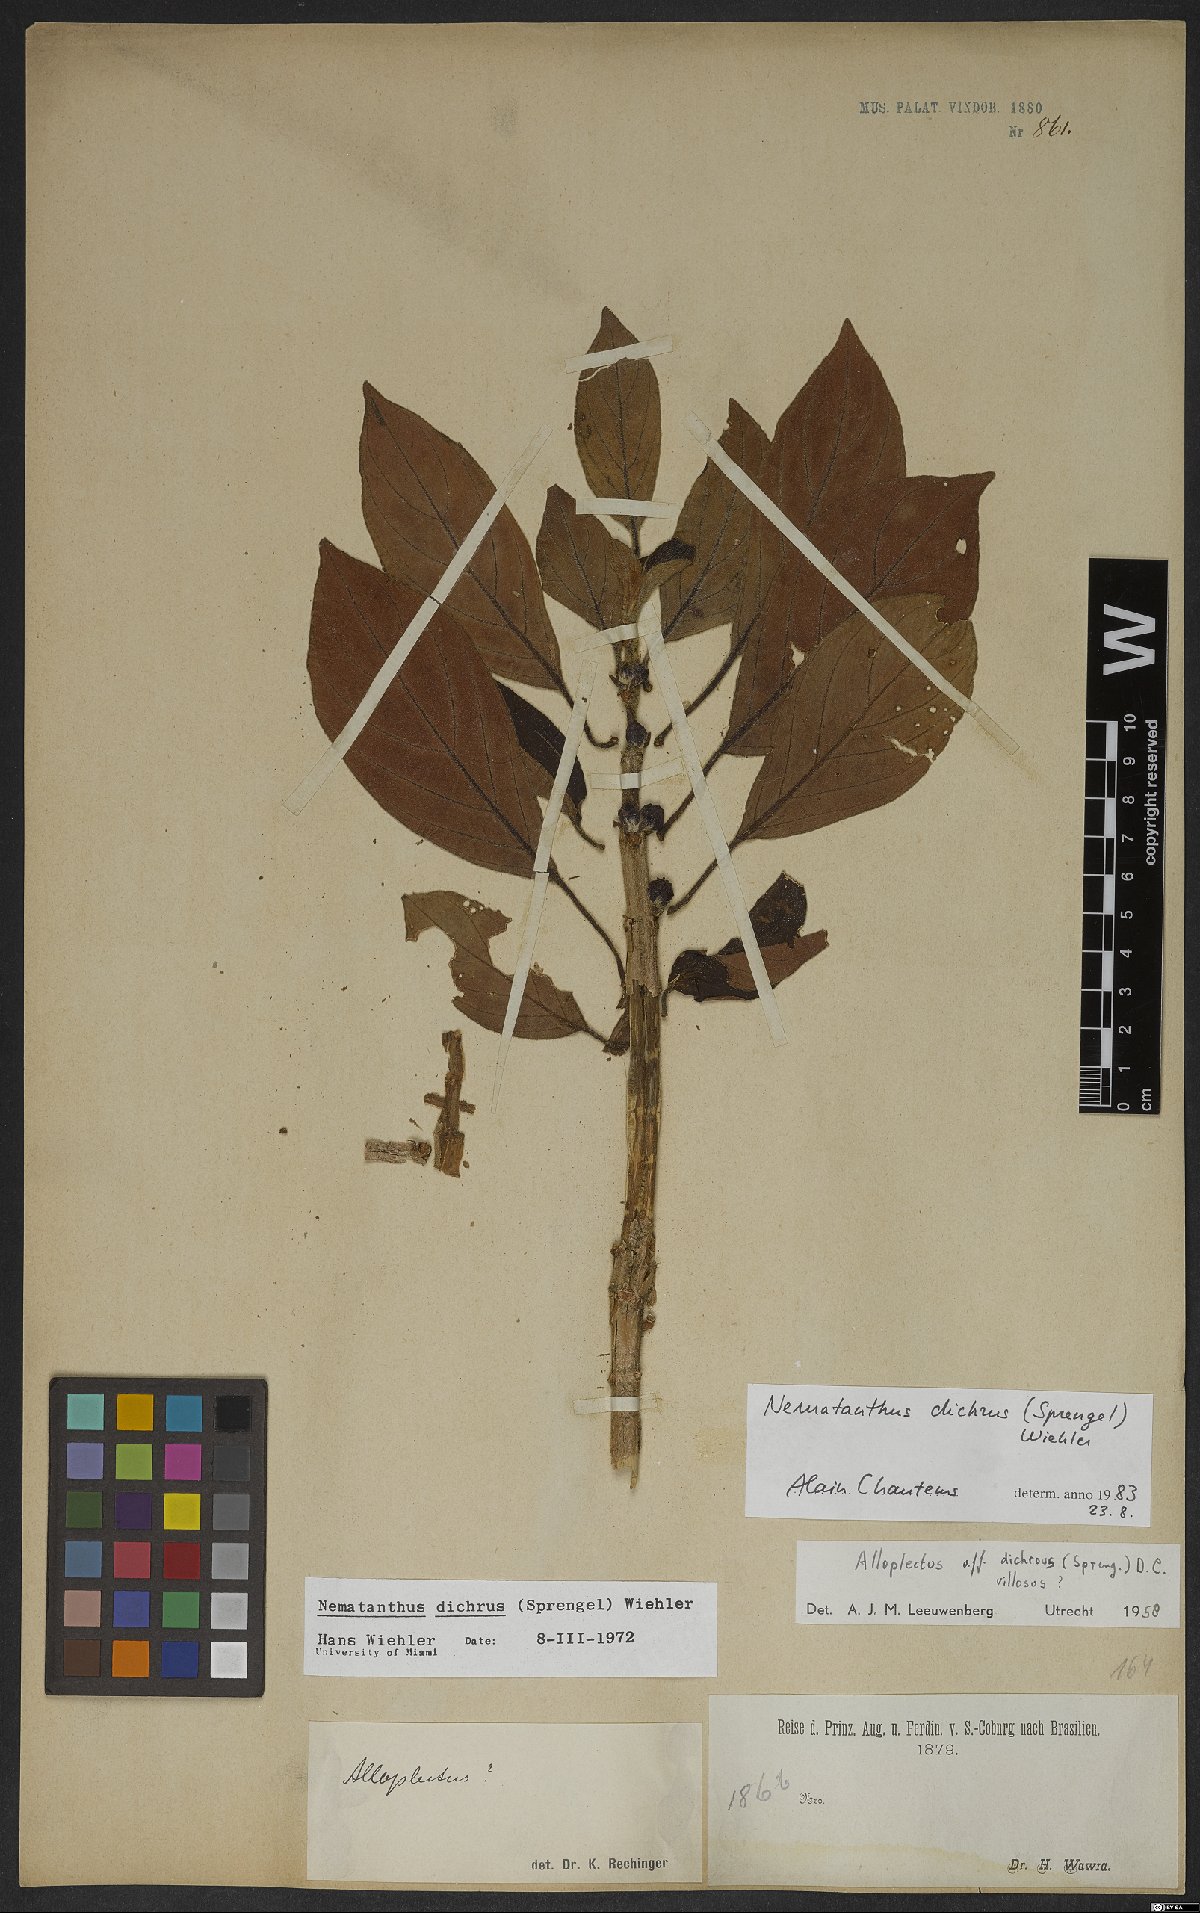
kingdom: Plantae
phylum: Tracheophyta
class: Magnoliopsida
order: Lamiales
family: Gesneriaceae
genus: Nematanthus
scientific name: Nematanthus lanceolatus
